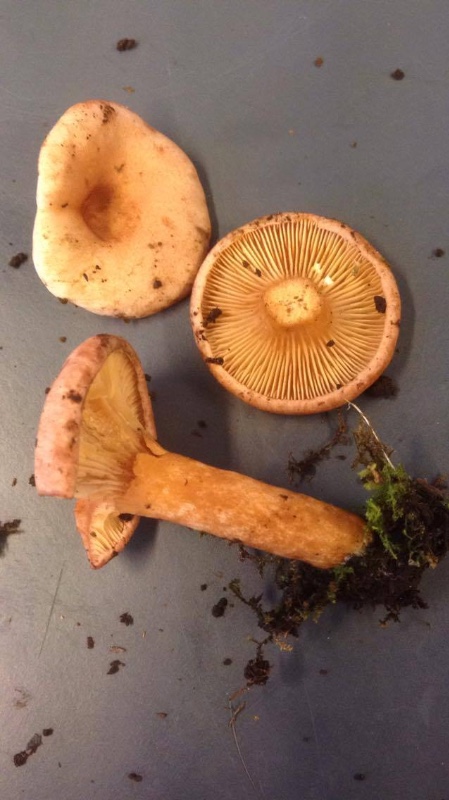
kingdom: Fungi
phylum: Basidiomycota
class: Agaricomycetes
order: Russulales
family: Russulaceae
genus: Lactarius
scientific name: Lactarius lilacinus
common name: lilla mælkehat
